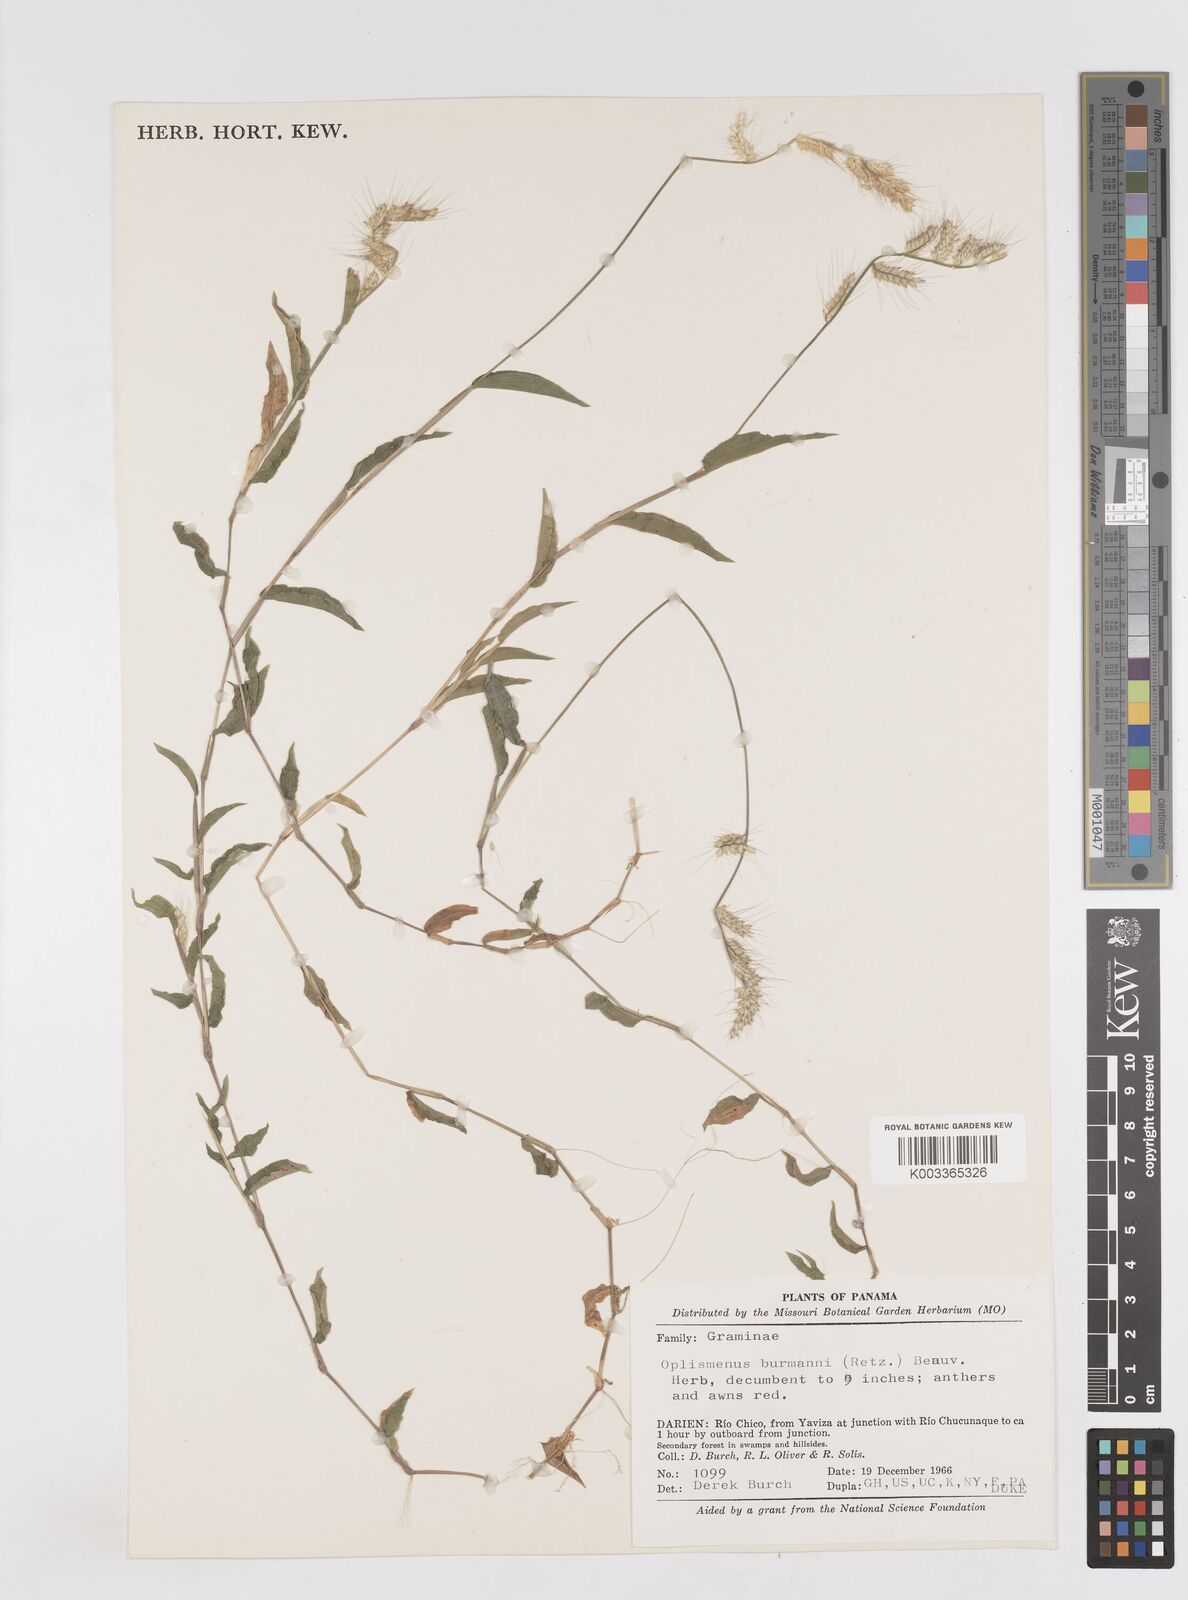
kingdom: Plantae
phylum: Tracheophyta
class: Liliopsida
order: Poales
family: Poaceae
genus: Oplismenus
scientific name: Oplismenus burmanni
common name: Burmann's basketgrass
